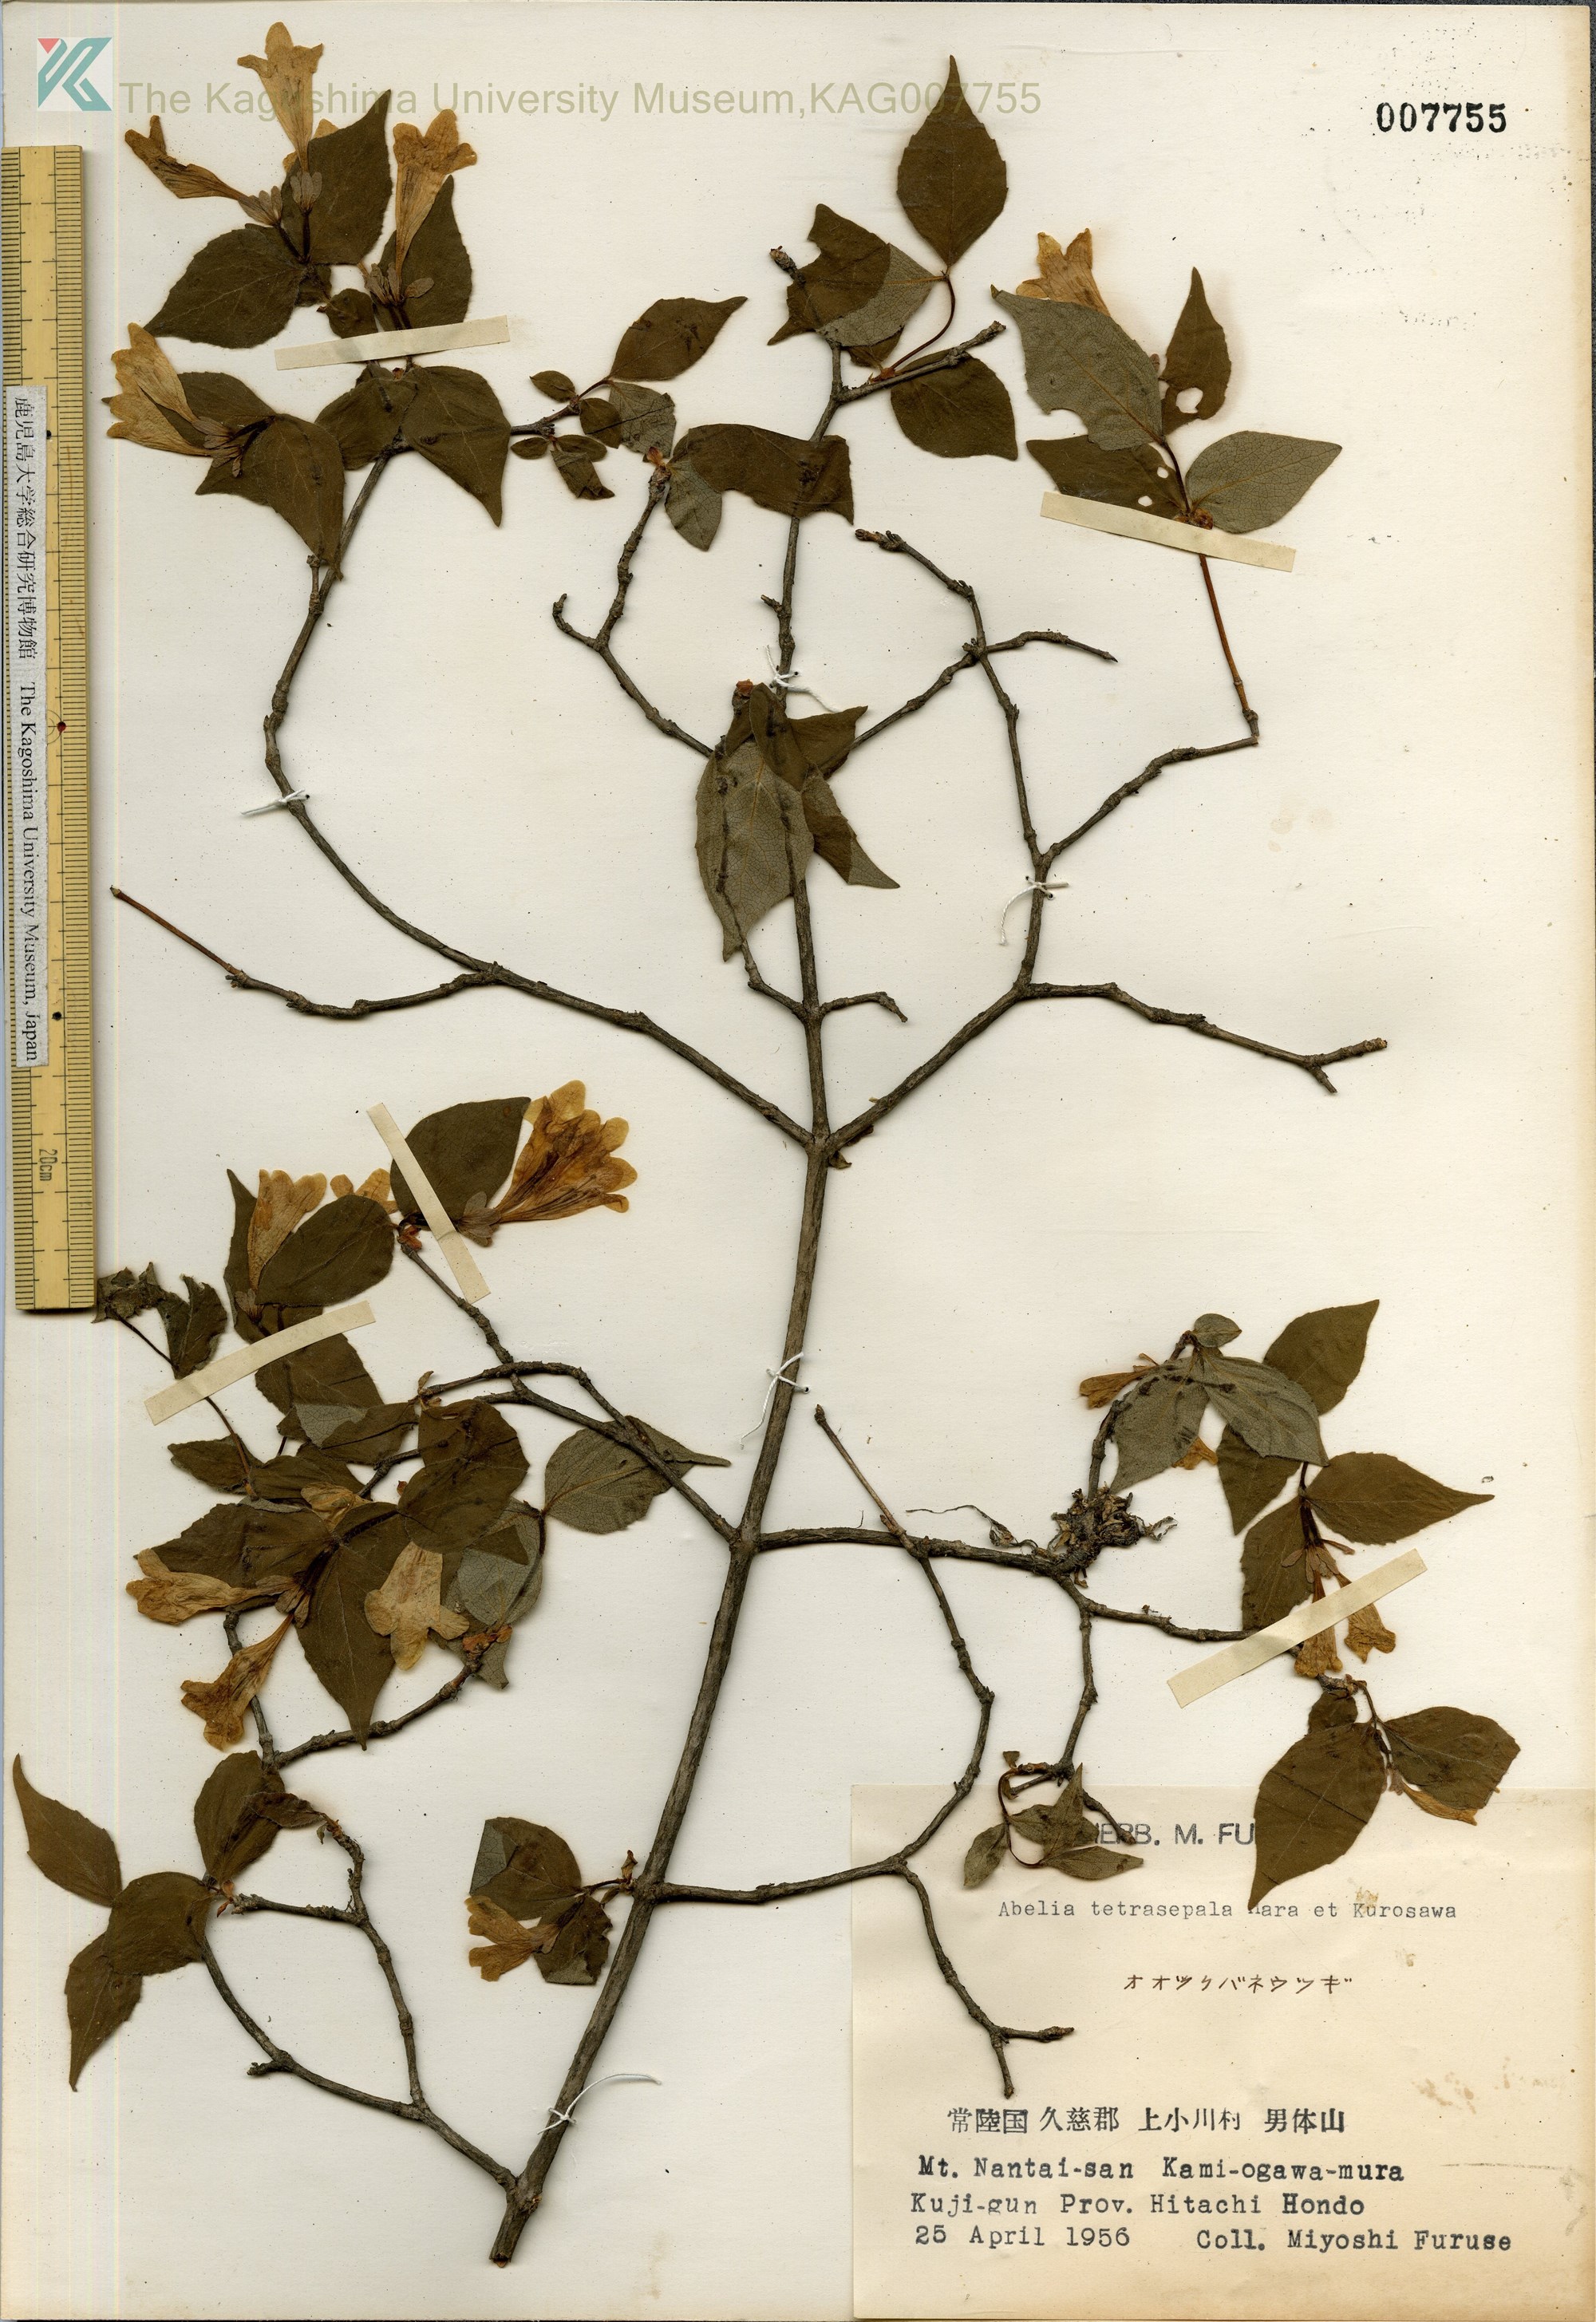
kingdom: Plantae
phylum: Tracheophyta
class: Magnoliopsida
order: Dipsacales
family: Caprifoliaceae
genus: Diabelia
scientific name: Diabelia ionostachya
